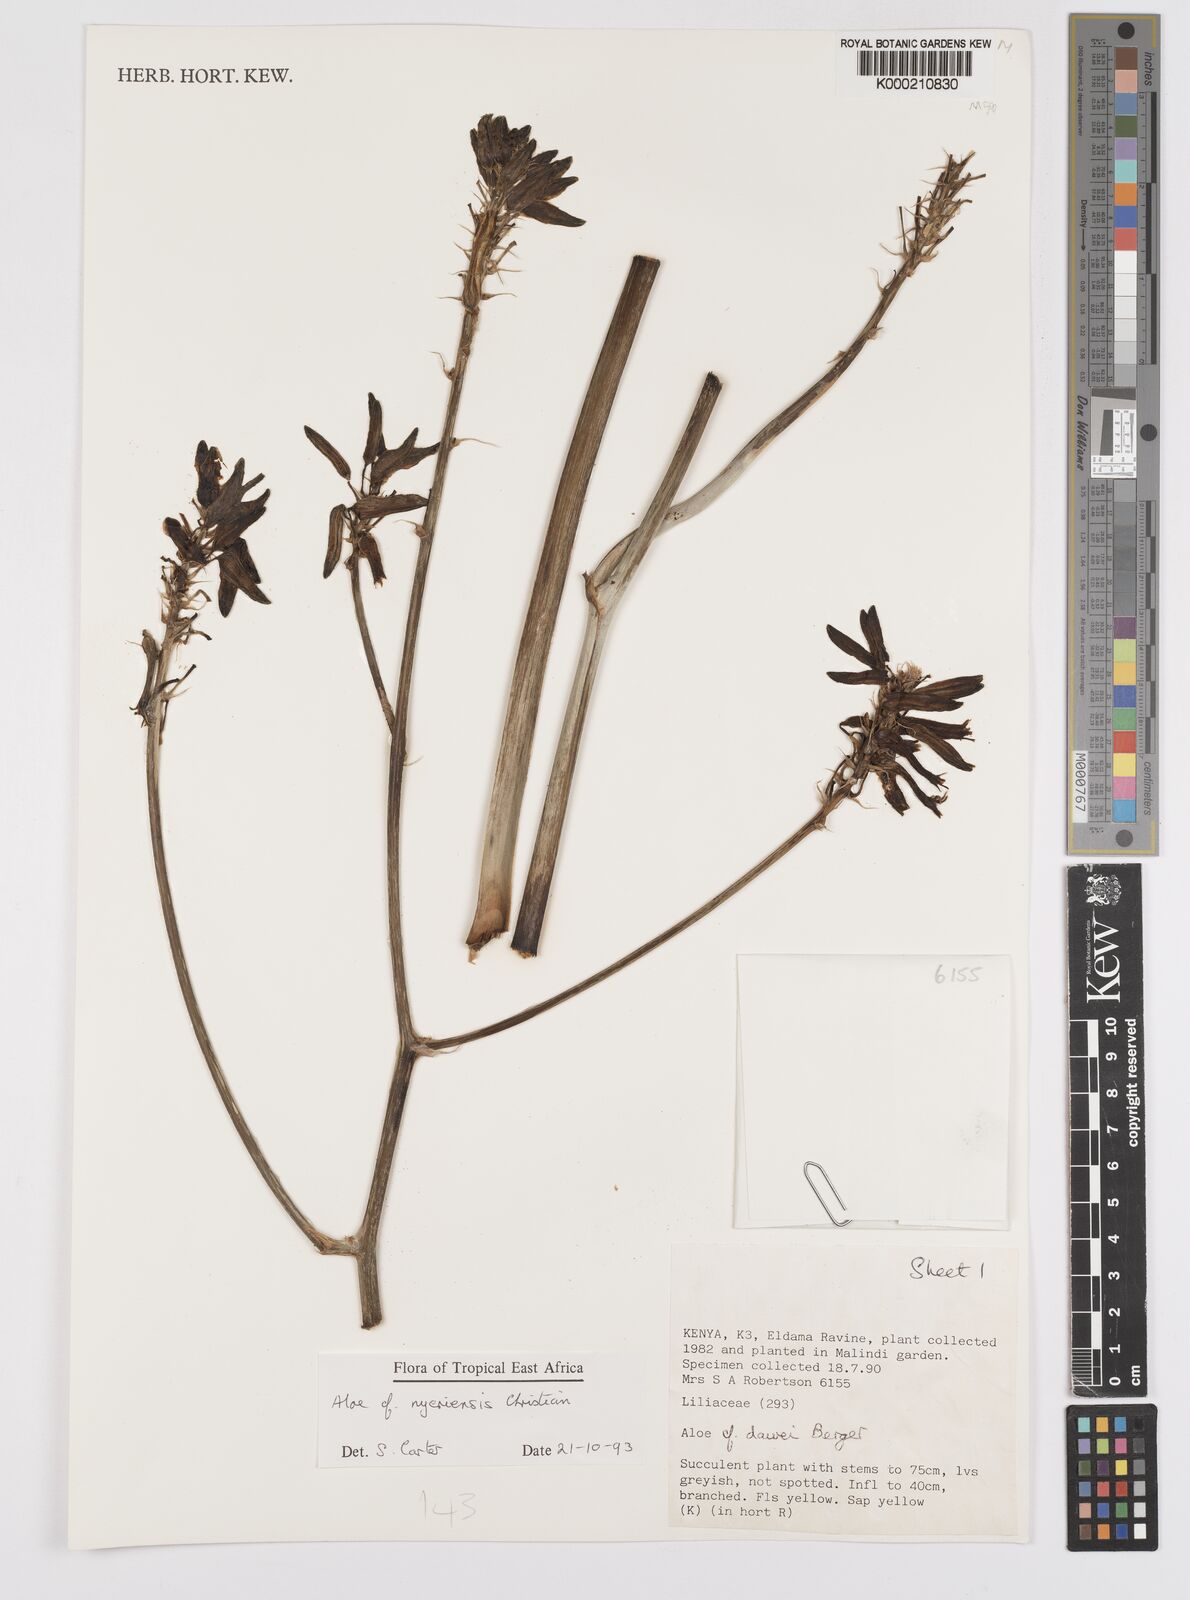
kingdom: Plantae
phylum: Tracheophyta
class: Liliopsida
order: Asparagales
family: Asphodelaceae
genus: Aloe
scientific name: Aloe nyeriensis
